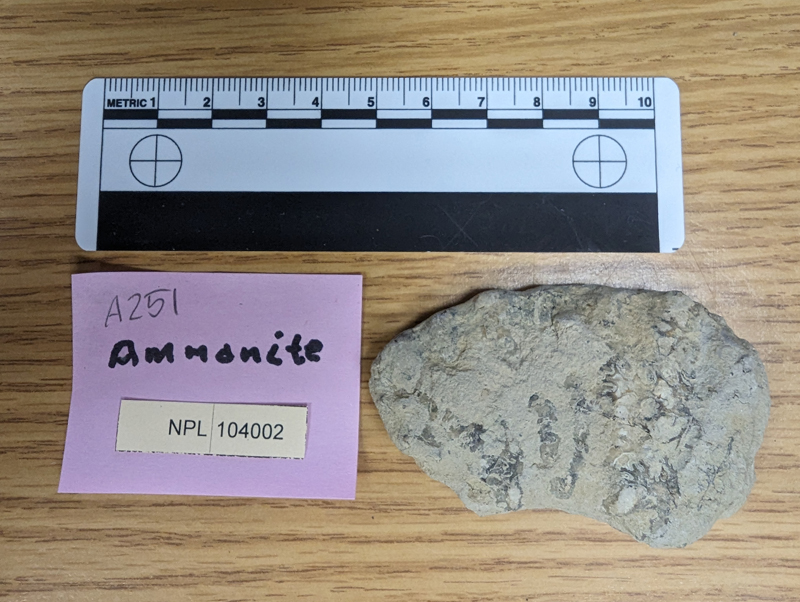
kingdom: Animalia
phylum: Mollusca
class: Cephalopoda
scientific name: Cephalopoda
